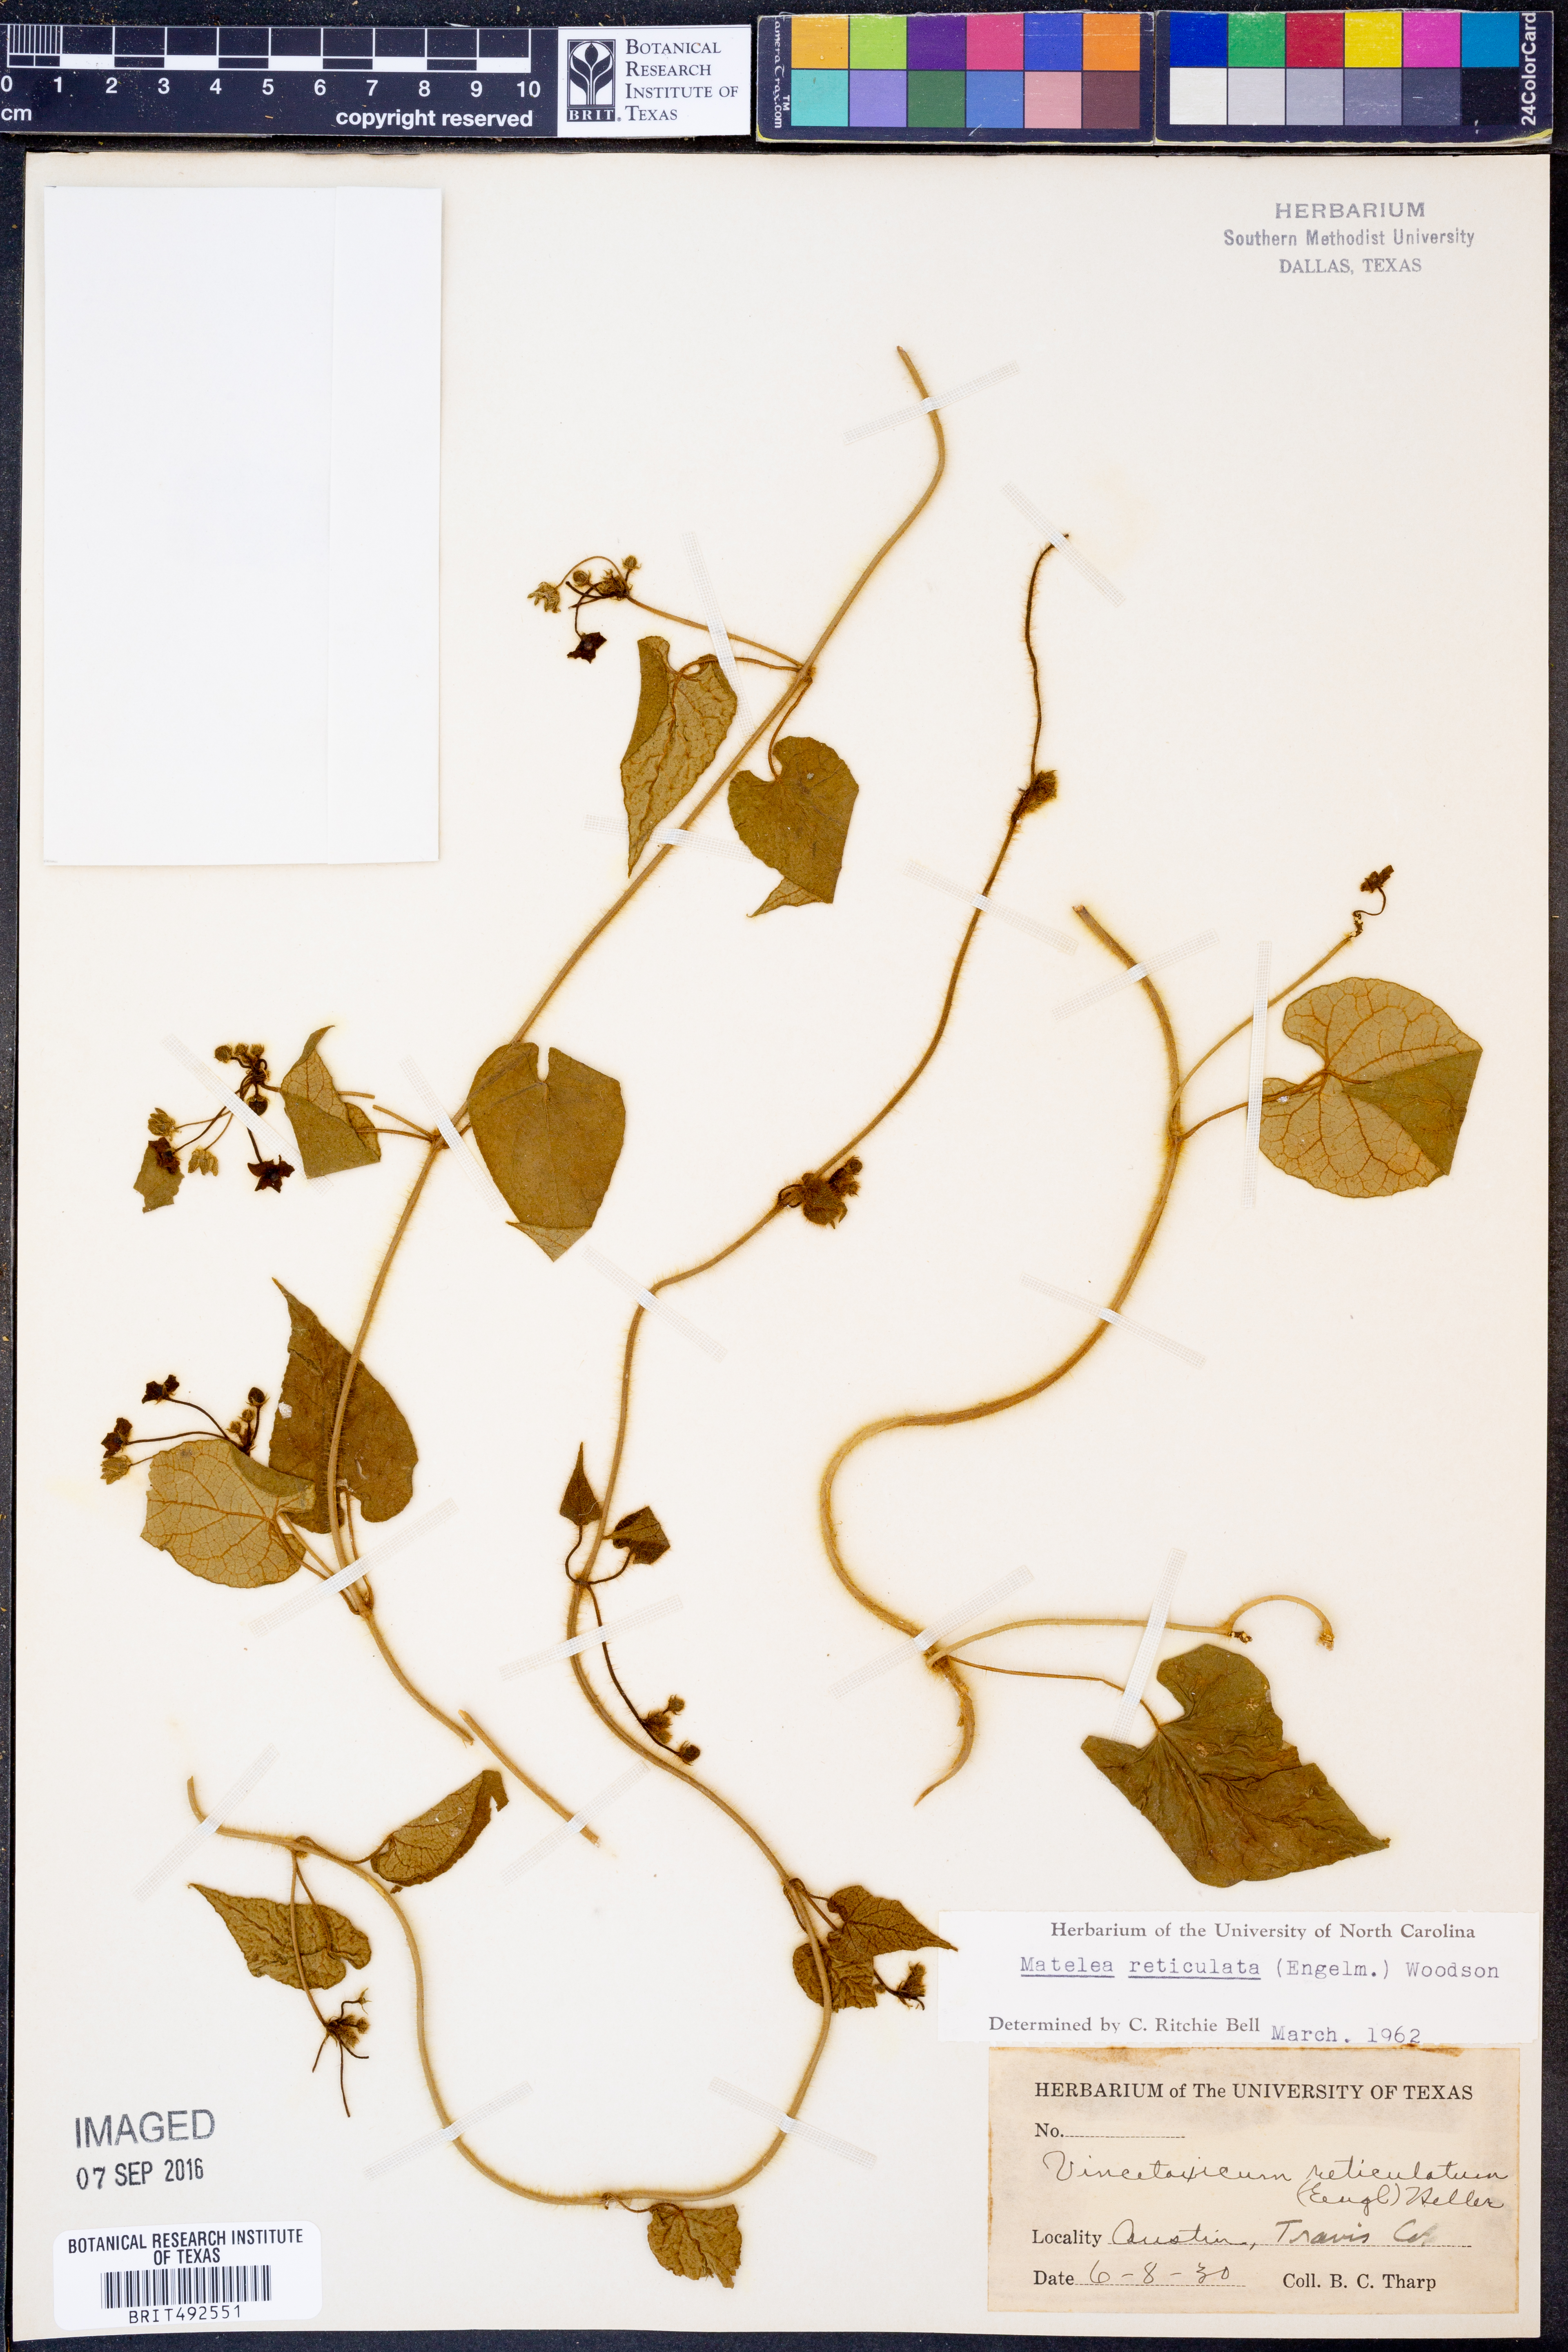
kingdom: Plantae
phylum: Tracheophyta
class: Magnoliopsida
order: Gentianales
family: Apocynaceae
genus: Dictyanthus
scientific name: Dictyanthus reticulatus
